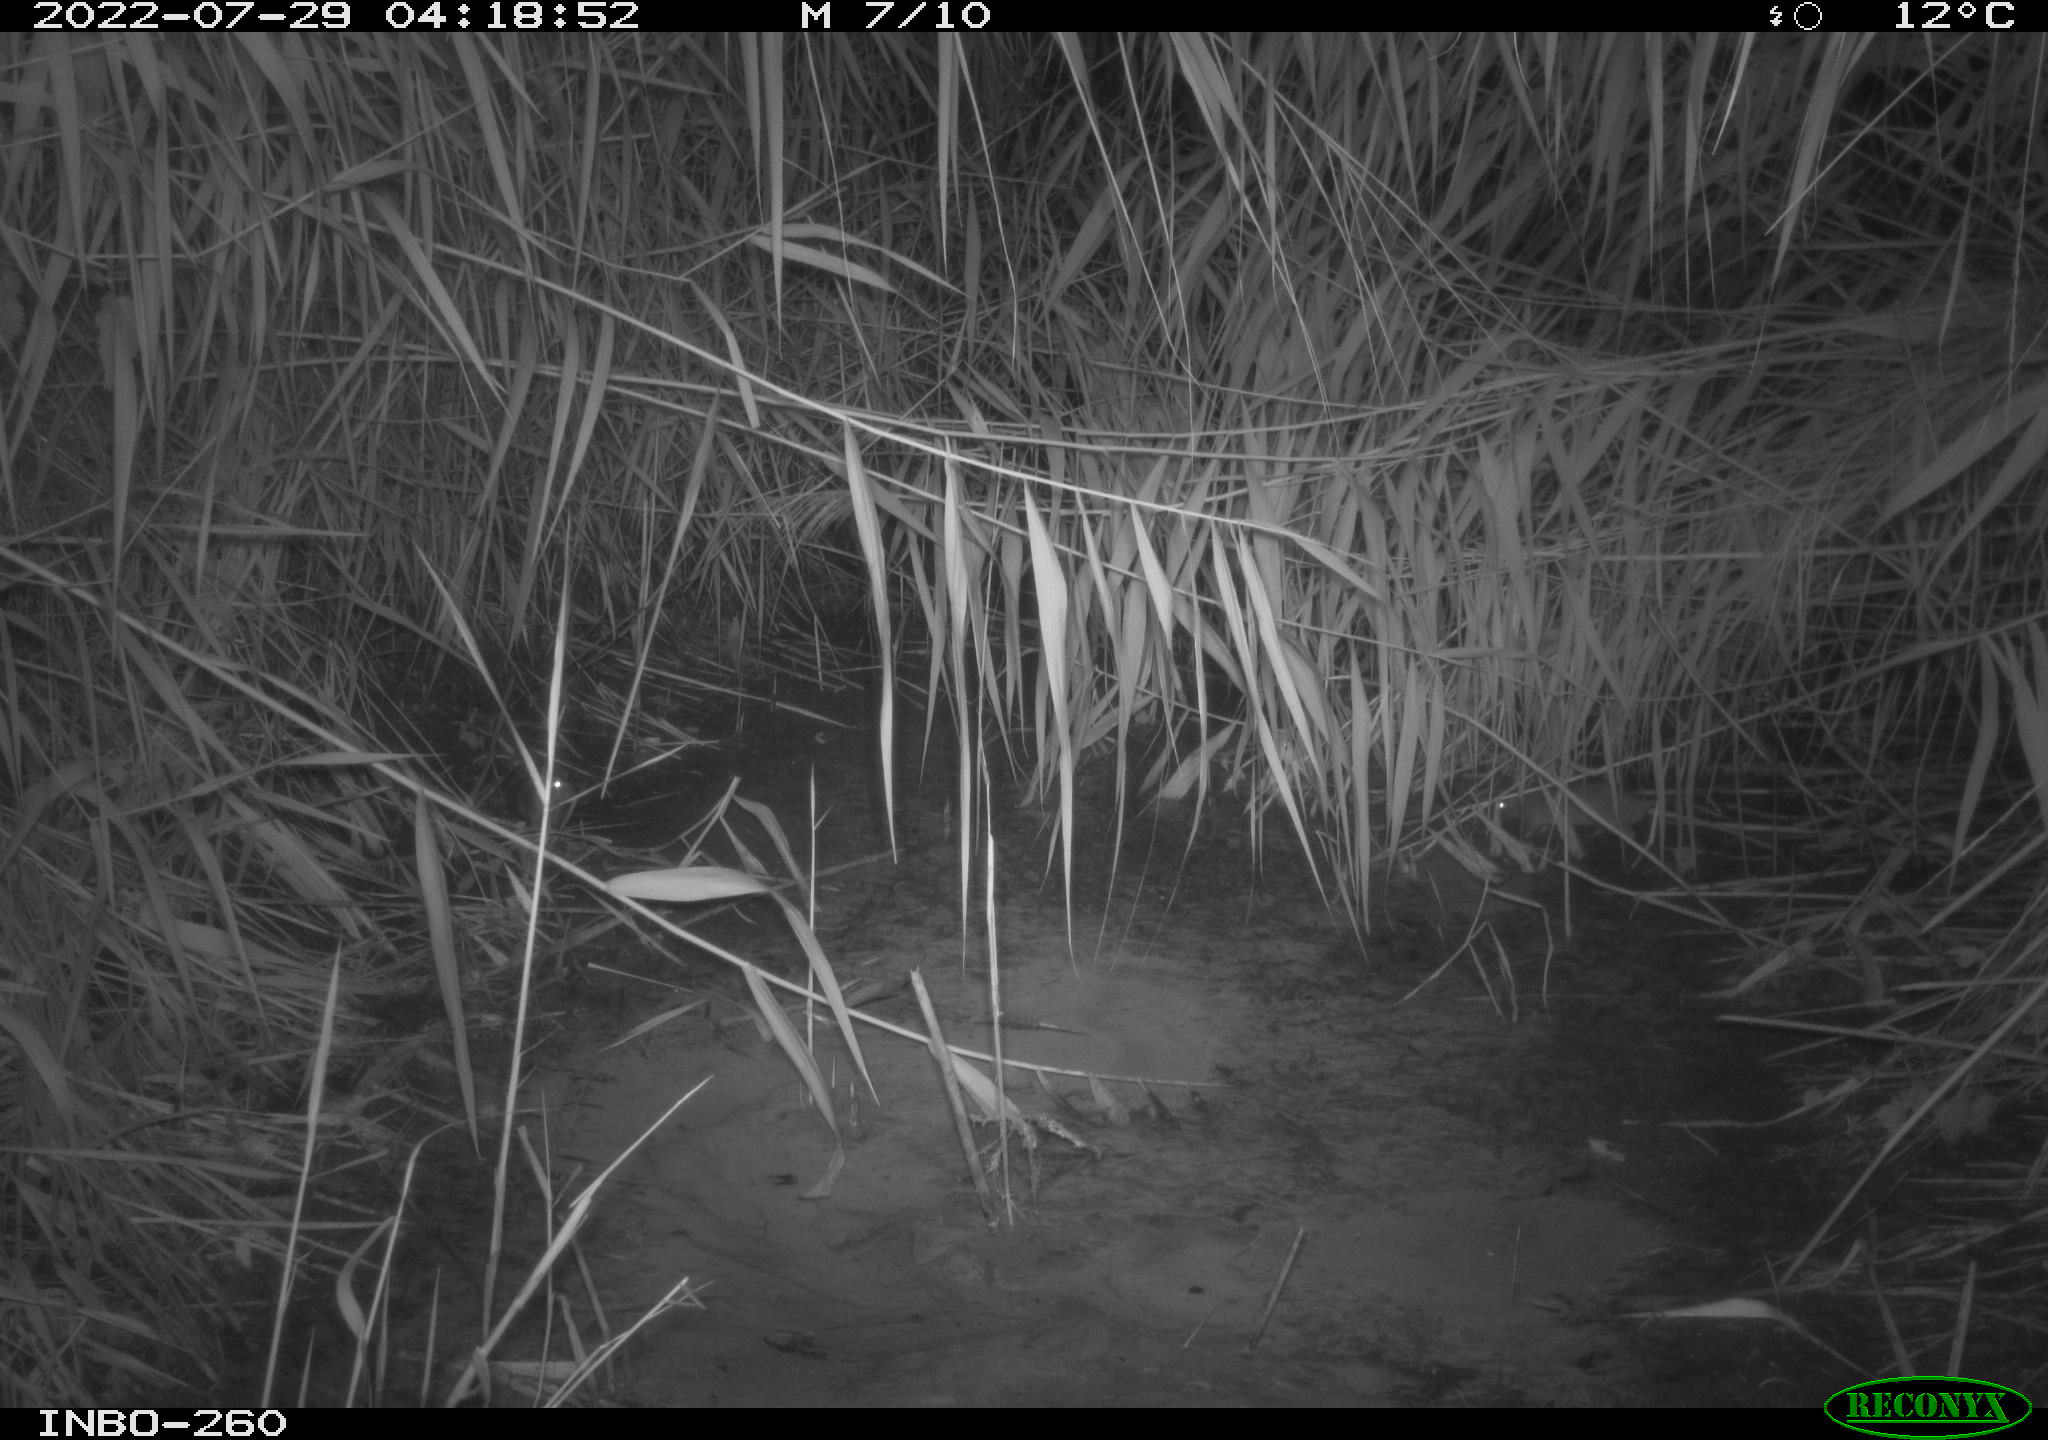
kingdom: Animalia
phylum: Chordata
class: Mammalia
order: Rodentia
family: Muridae
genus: Rattus
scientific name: Rattus norvegicus
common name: Brown rat
